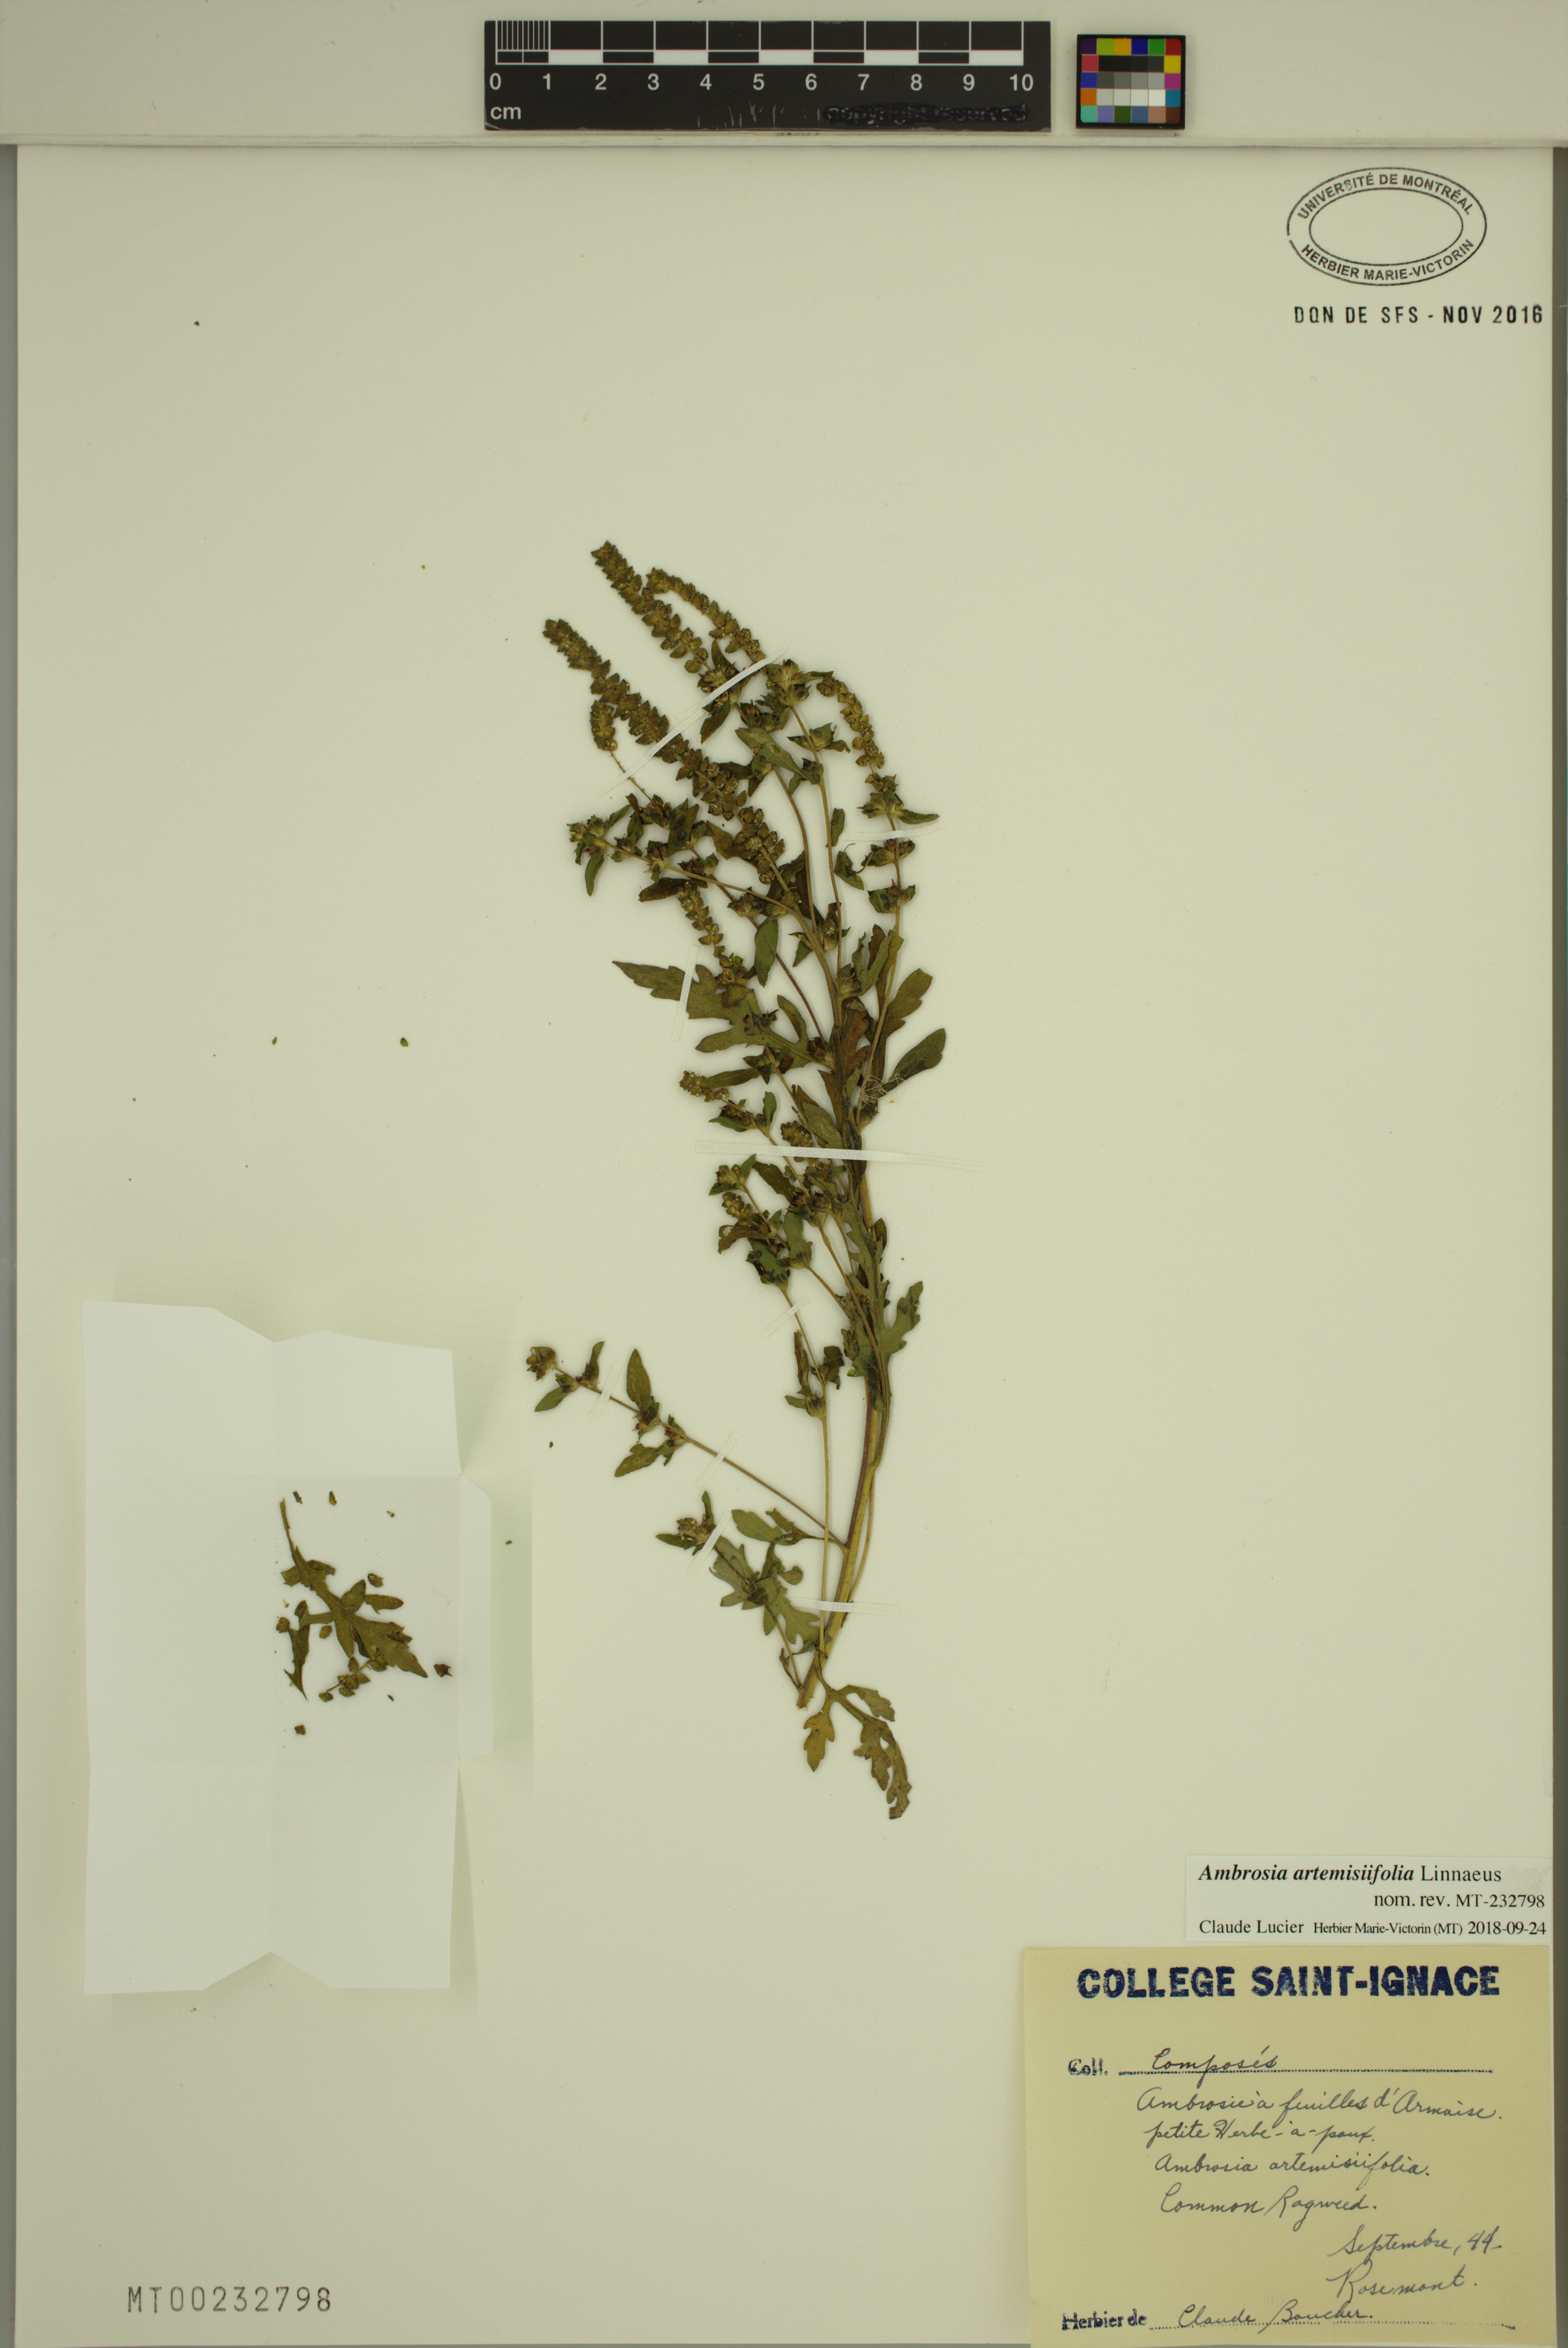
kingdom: Plantae
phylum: Tracheophyta
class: Magnoliopsida
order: Asterales
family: Asteraceae
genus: Ambrosia
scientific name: Ambrosia artemisiifolia
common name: Annual ragweed
